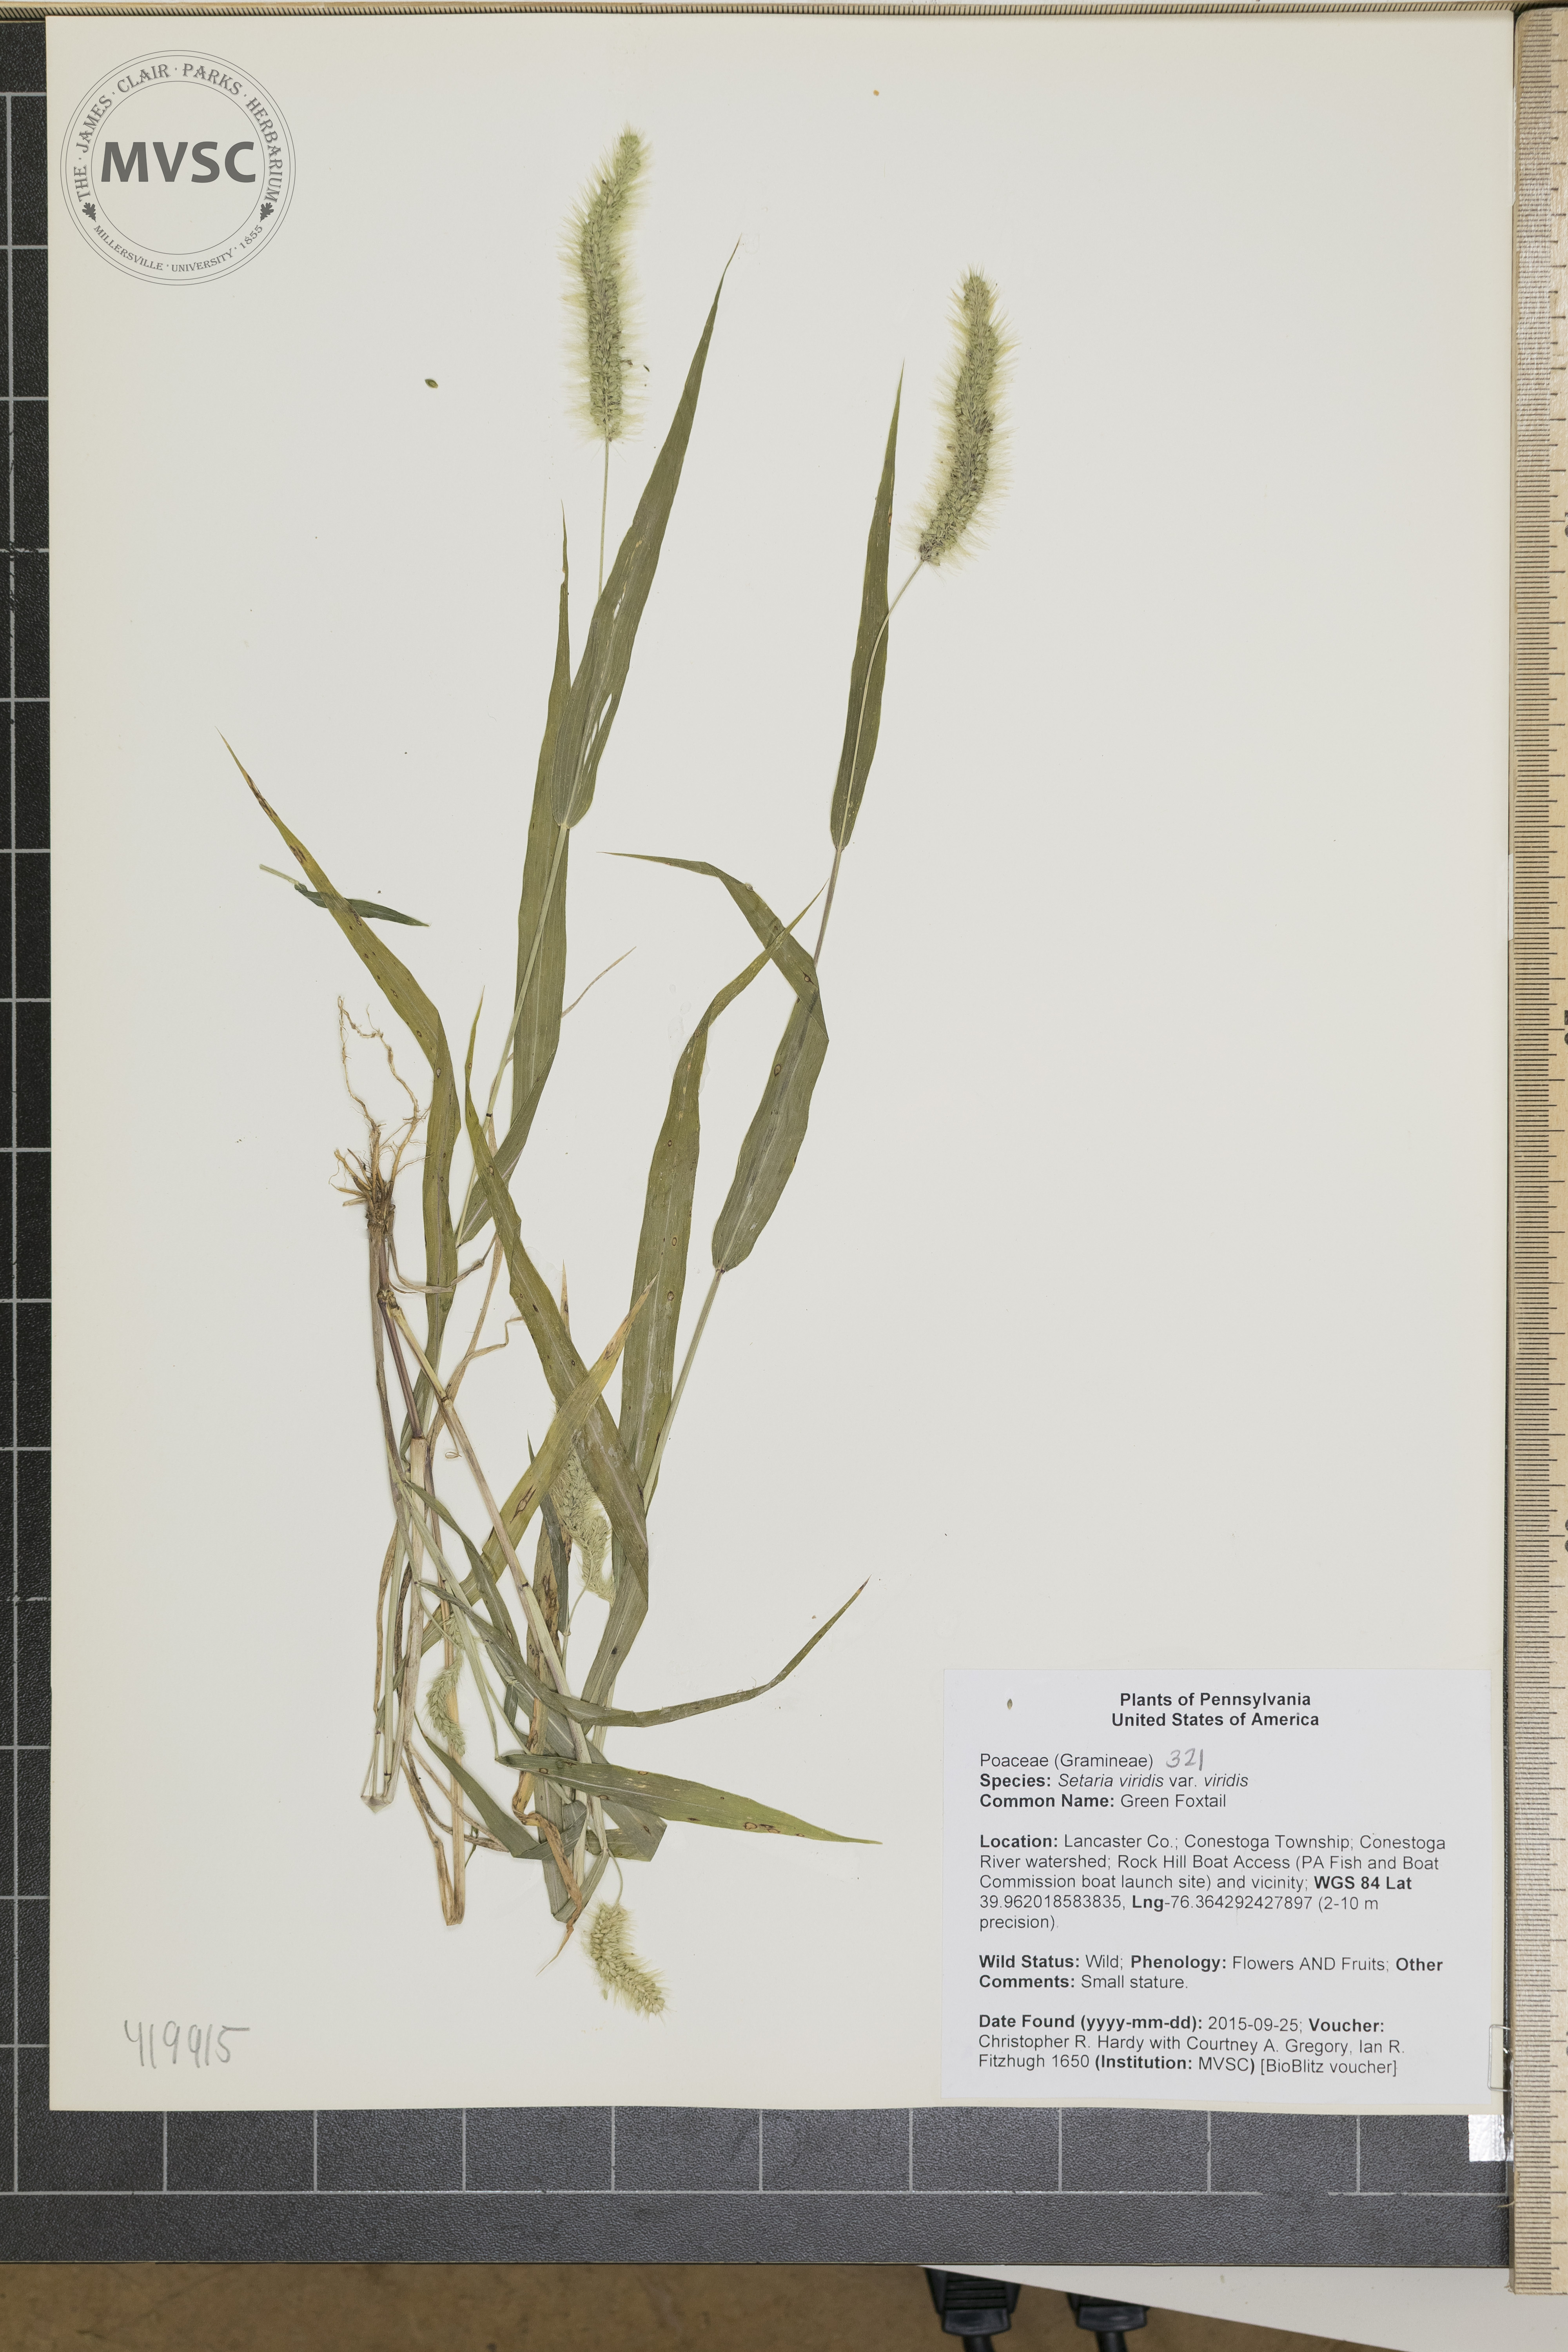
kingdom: Plantae
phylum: Tracheophyta
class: Liliopsida
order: Poales
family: Poaceae
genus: Setaria
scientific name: Setaria viridis
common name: Green Foxtail
